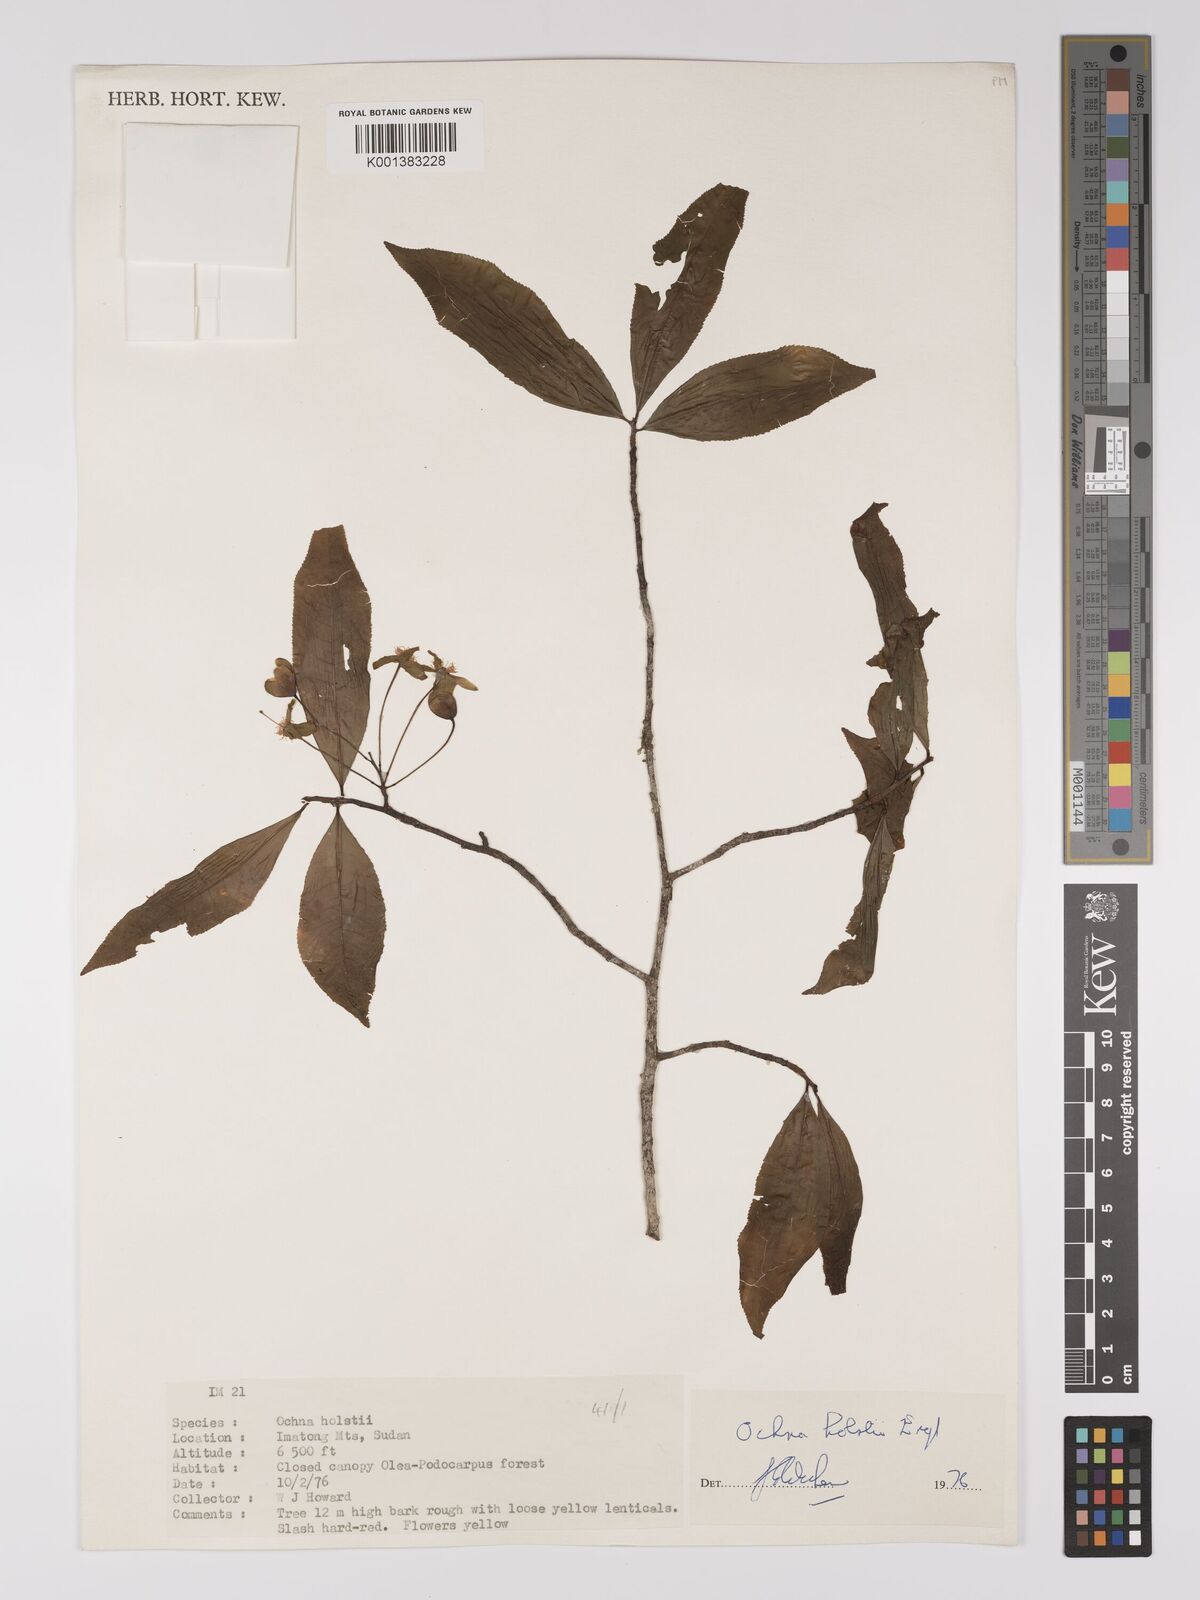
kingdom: Plantae
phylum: Tracheophyta
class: Magnoliopsida
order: Malpighiales
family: Ochnaceae
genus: Ochna
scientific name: Ochna holstii
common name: Red ironwood
